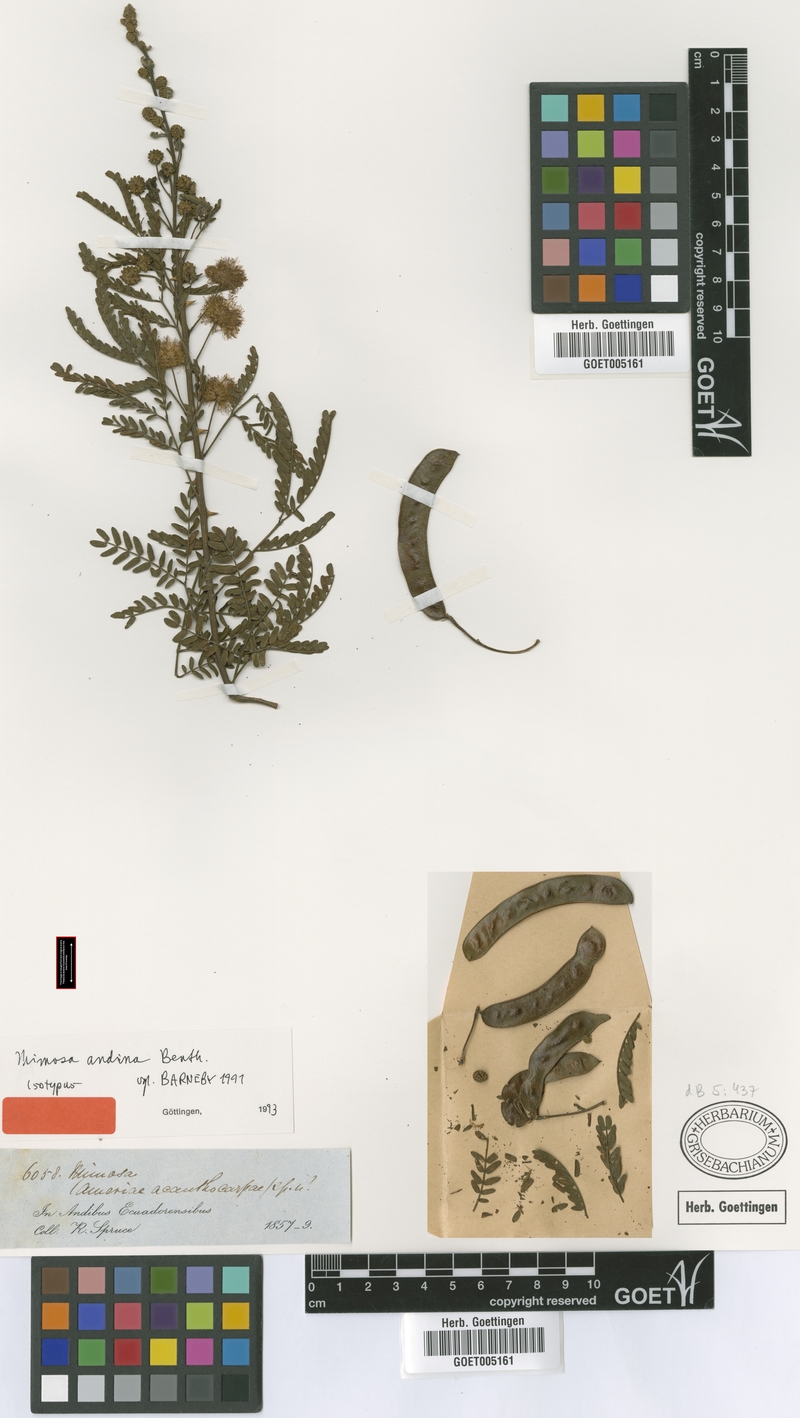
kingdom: Plantae
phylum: Tracheophyta
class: Magnoliopsida
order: Fabales
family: Fabaceae
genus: Mimosa
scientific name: Mimosa andina
